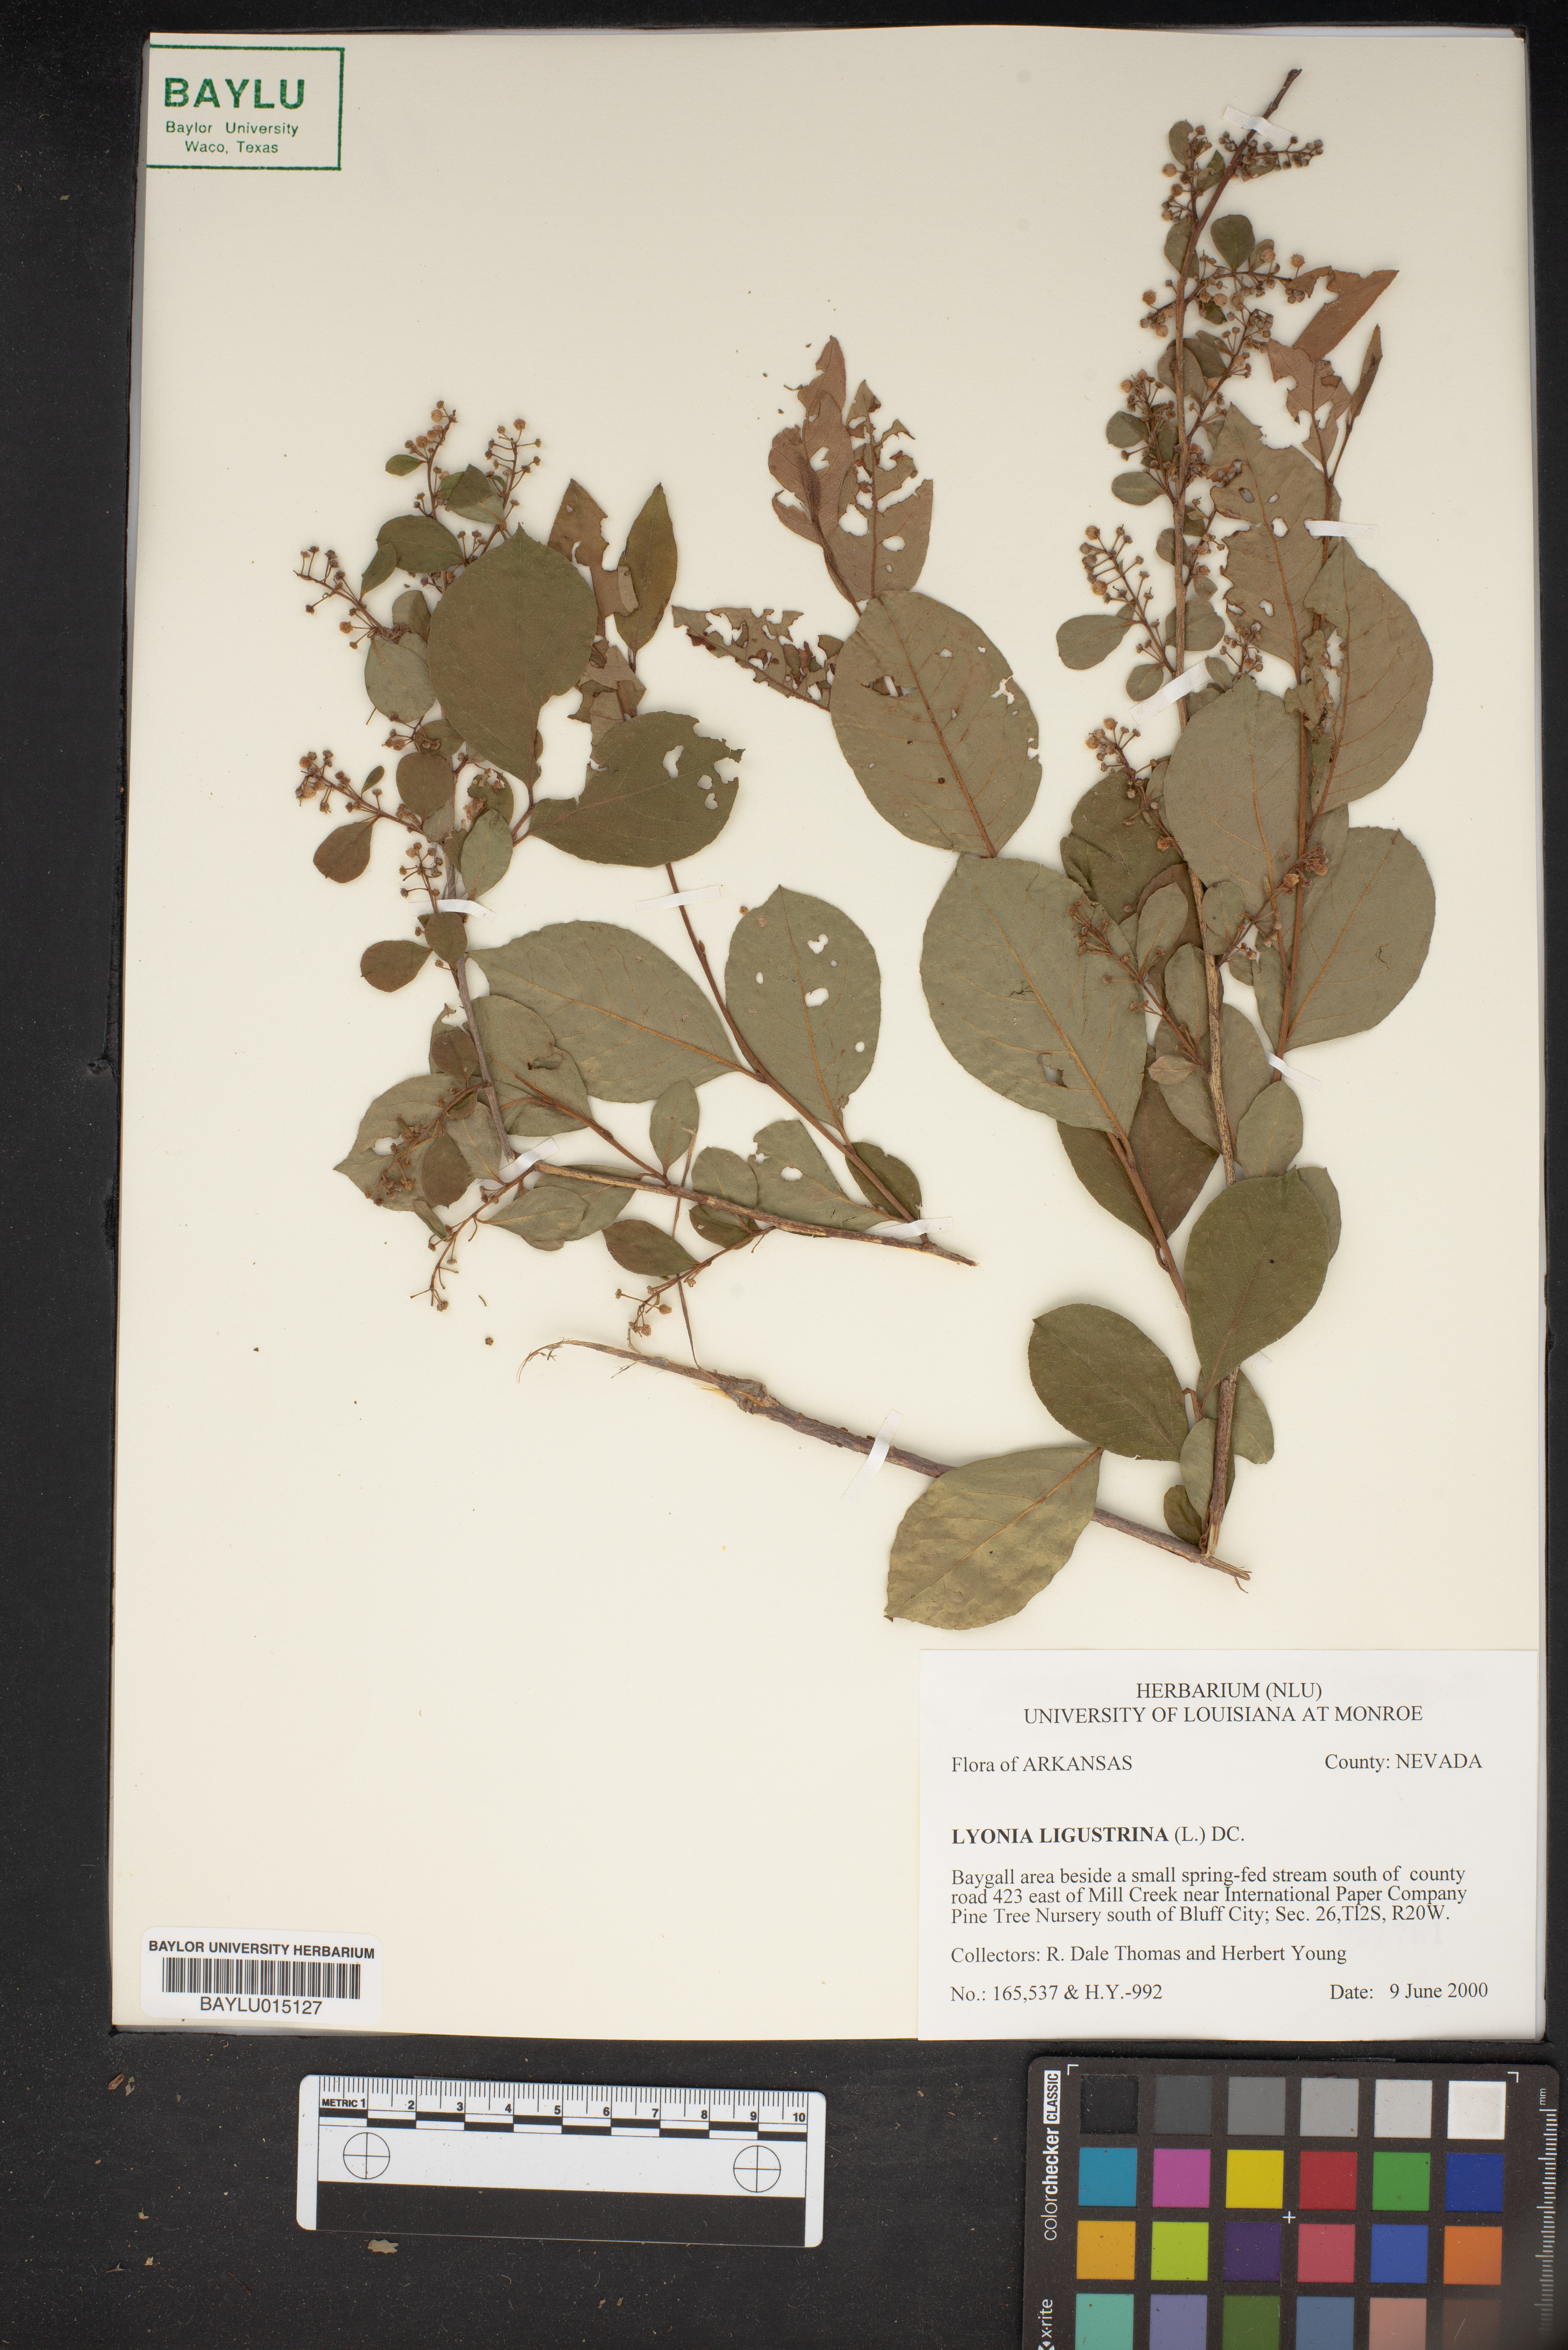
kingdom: Plantae
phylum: Tracheophyta
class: Magnoliopsida
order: Ericales
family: Ericaceae
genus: Lyonia
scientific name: Lyonia ligustrina
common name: Maleberry
